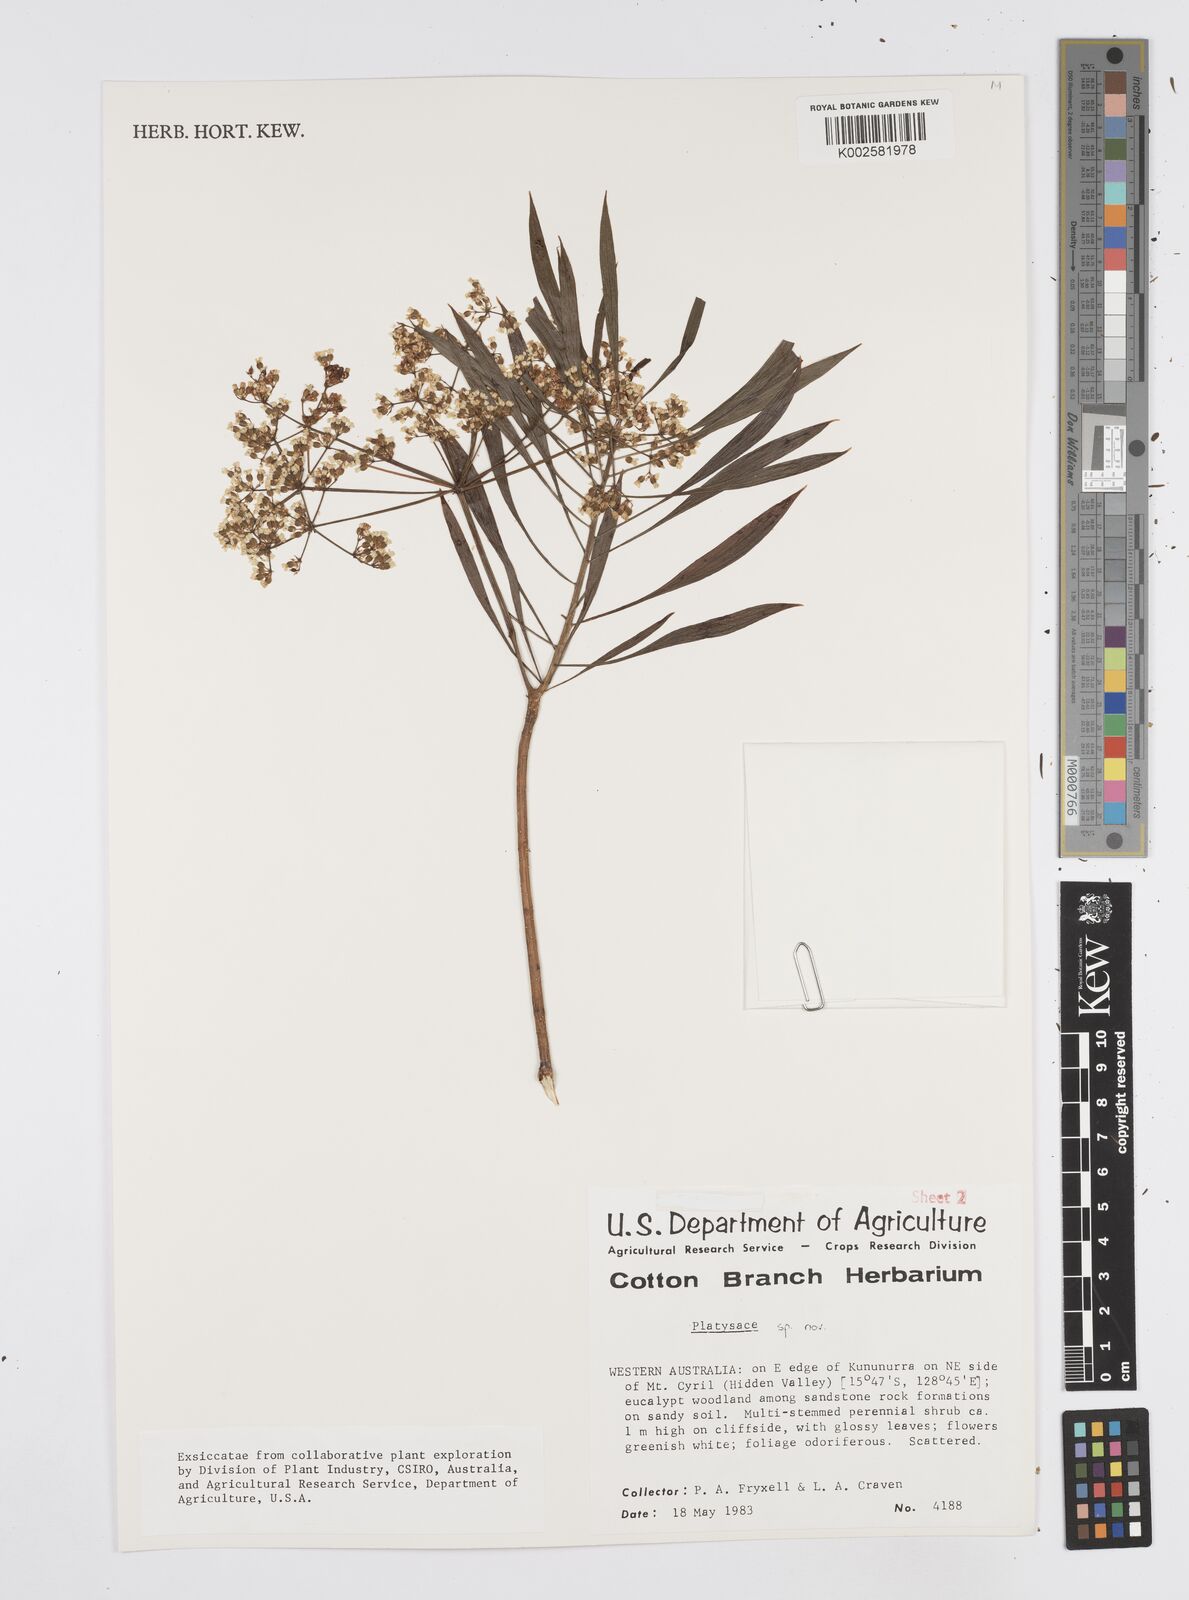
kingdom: Plantae
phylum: Tracheophyta
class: Magnoliopsida
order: Apiales
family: Apiaceae
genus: Platysace
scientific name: Platysace
